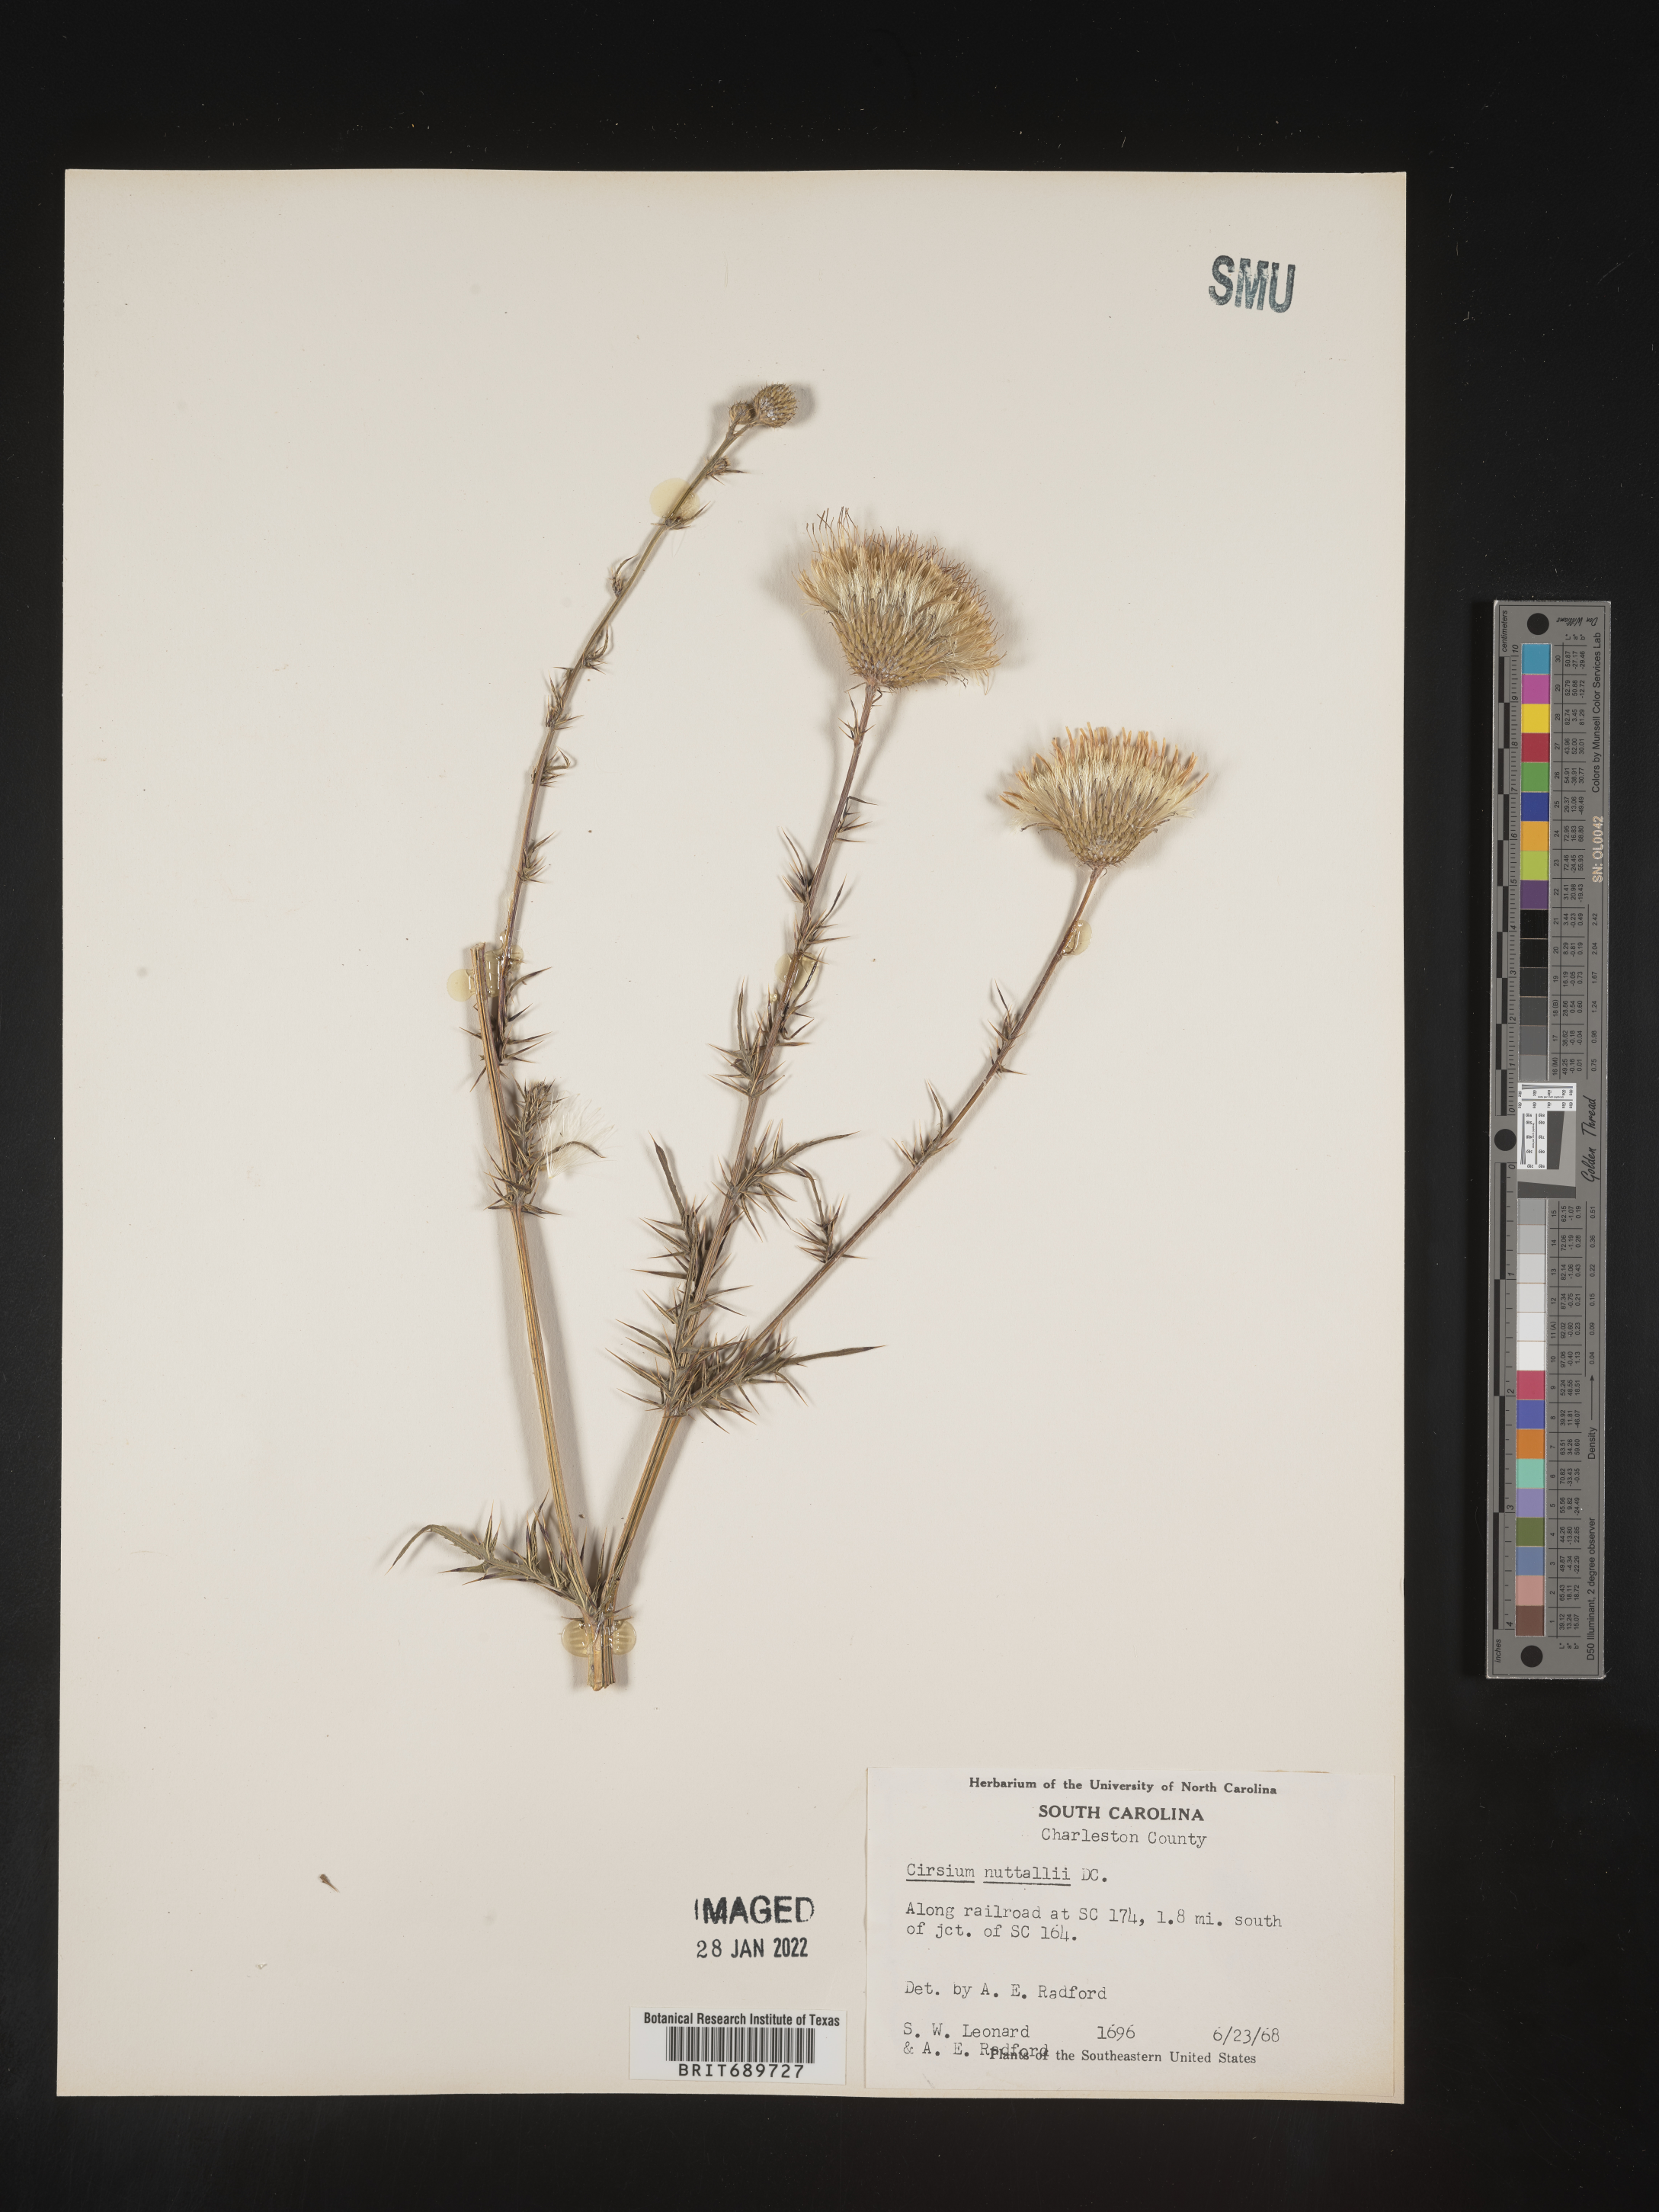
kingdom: Plantae
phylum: Tracheophyta
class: Magnoliopsida
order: Asterales
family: Asteraceae
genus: Cirsium
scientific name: Cirsium
